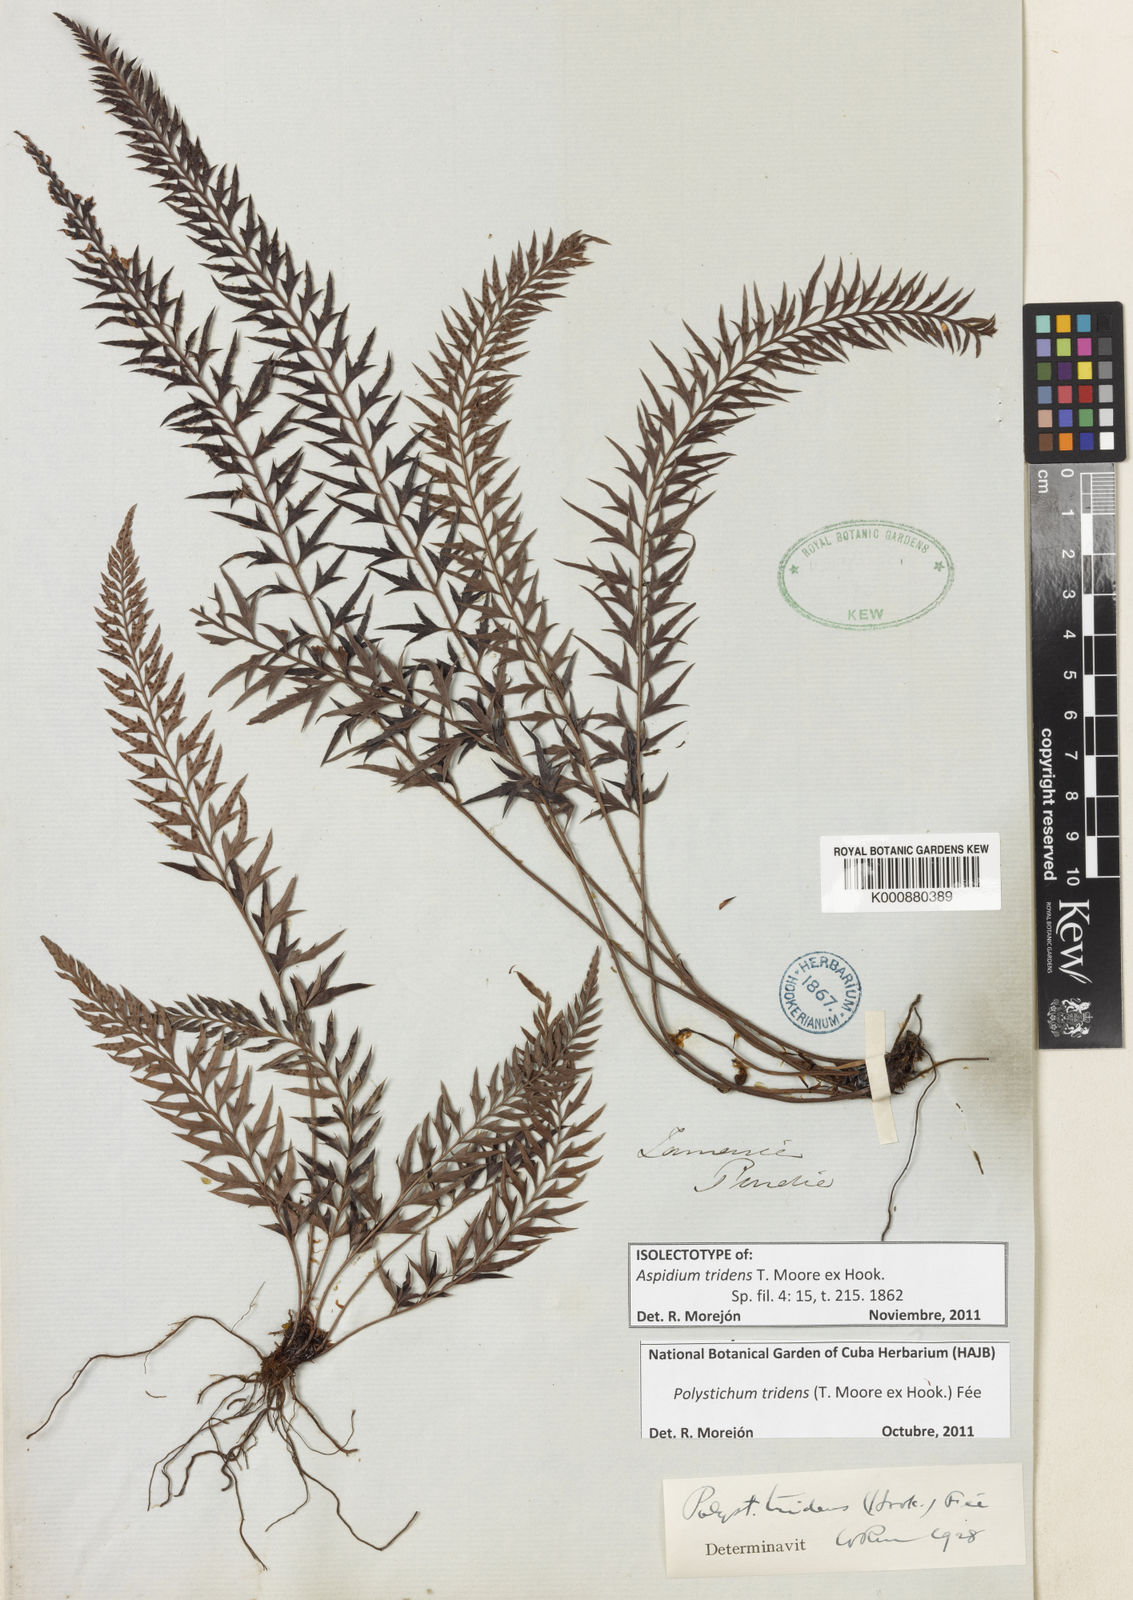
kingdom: Plantae
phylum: Tracheophyta
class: Polypodiopsida
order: Polypodiales
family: Dryopteridaceae
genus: Polystichum
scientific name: Polystichum
